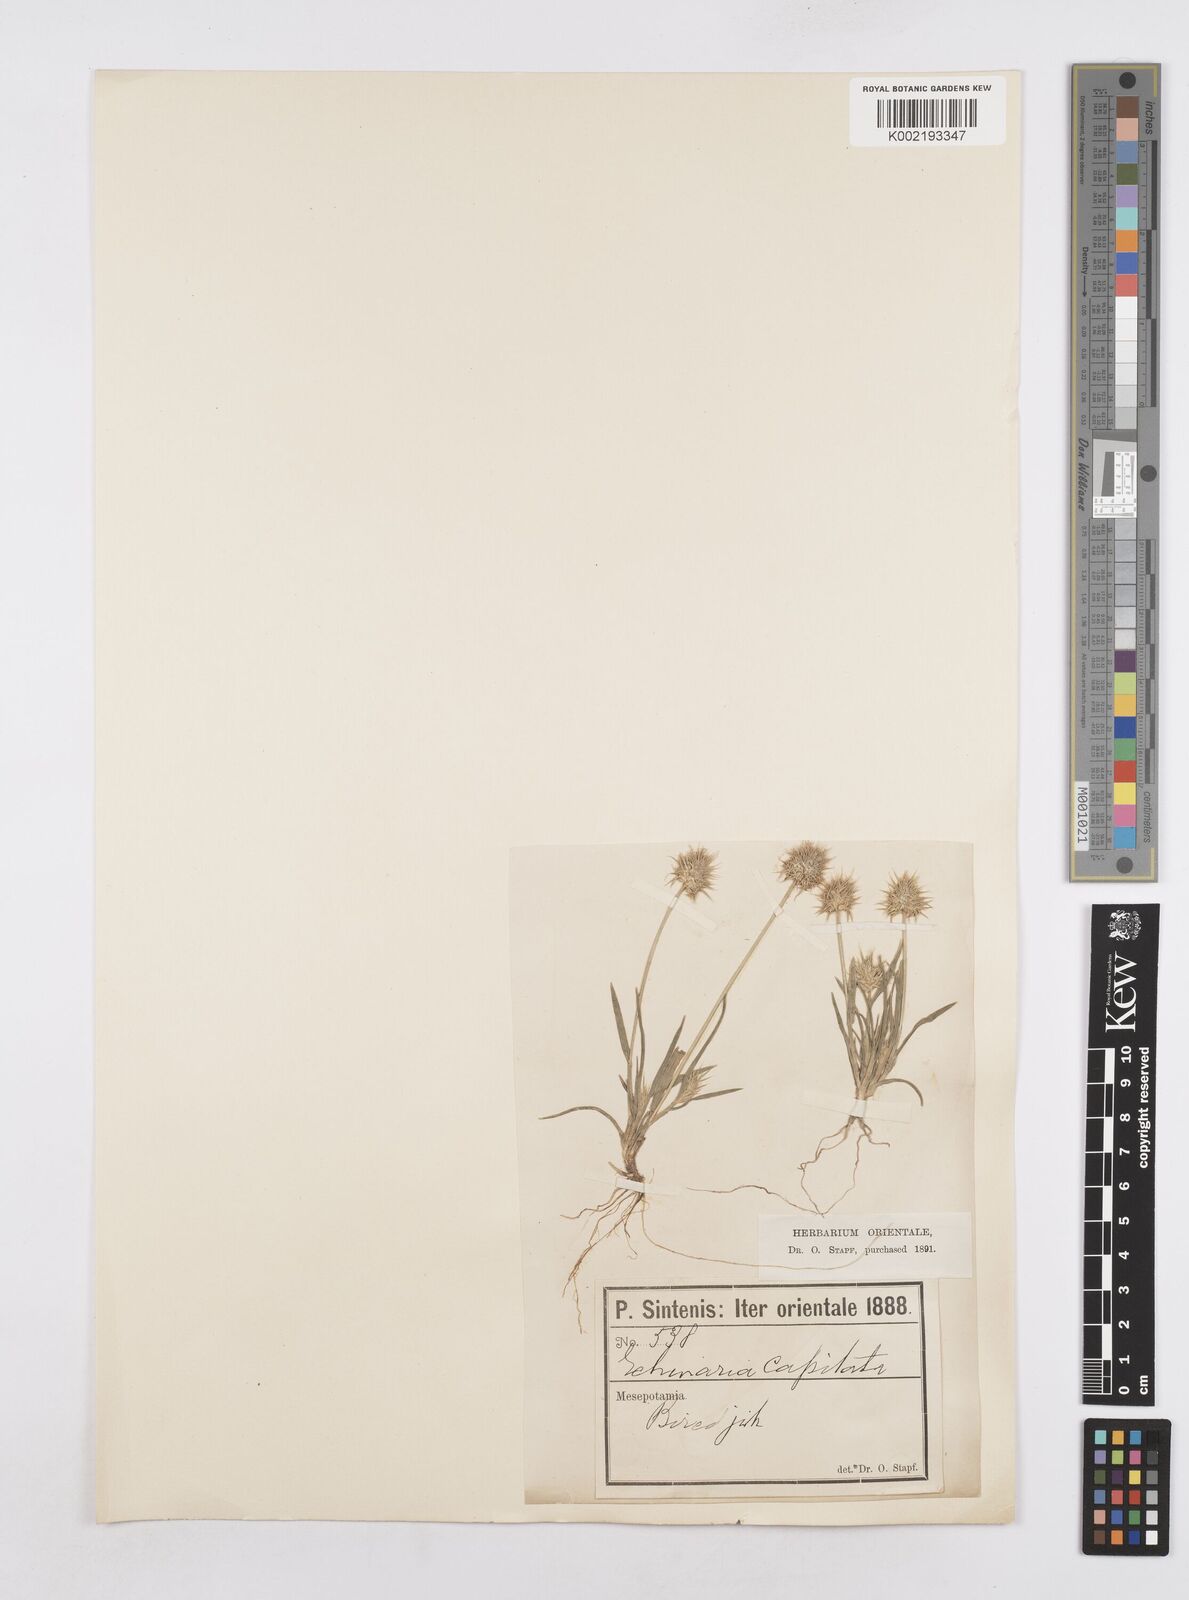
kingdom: Plantae
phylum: Tracheophyta
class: Liliopsida
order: Poales
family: Poaceae
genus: Echinaria
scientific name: Echinaria capitata
